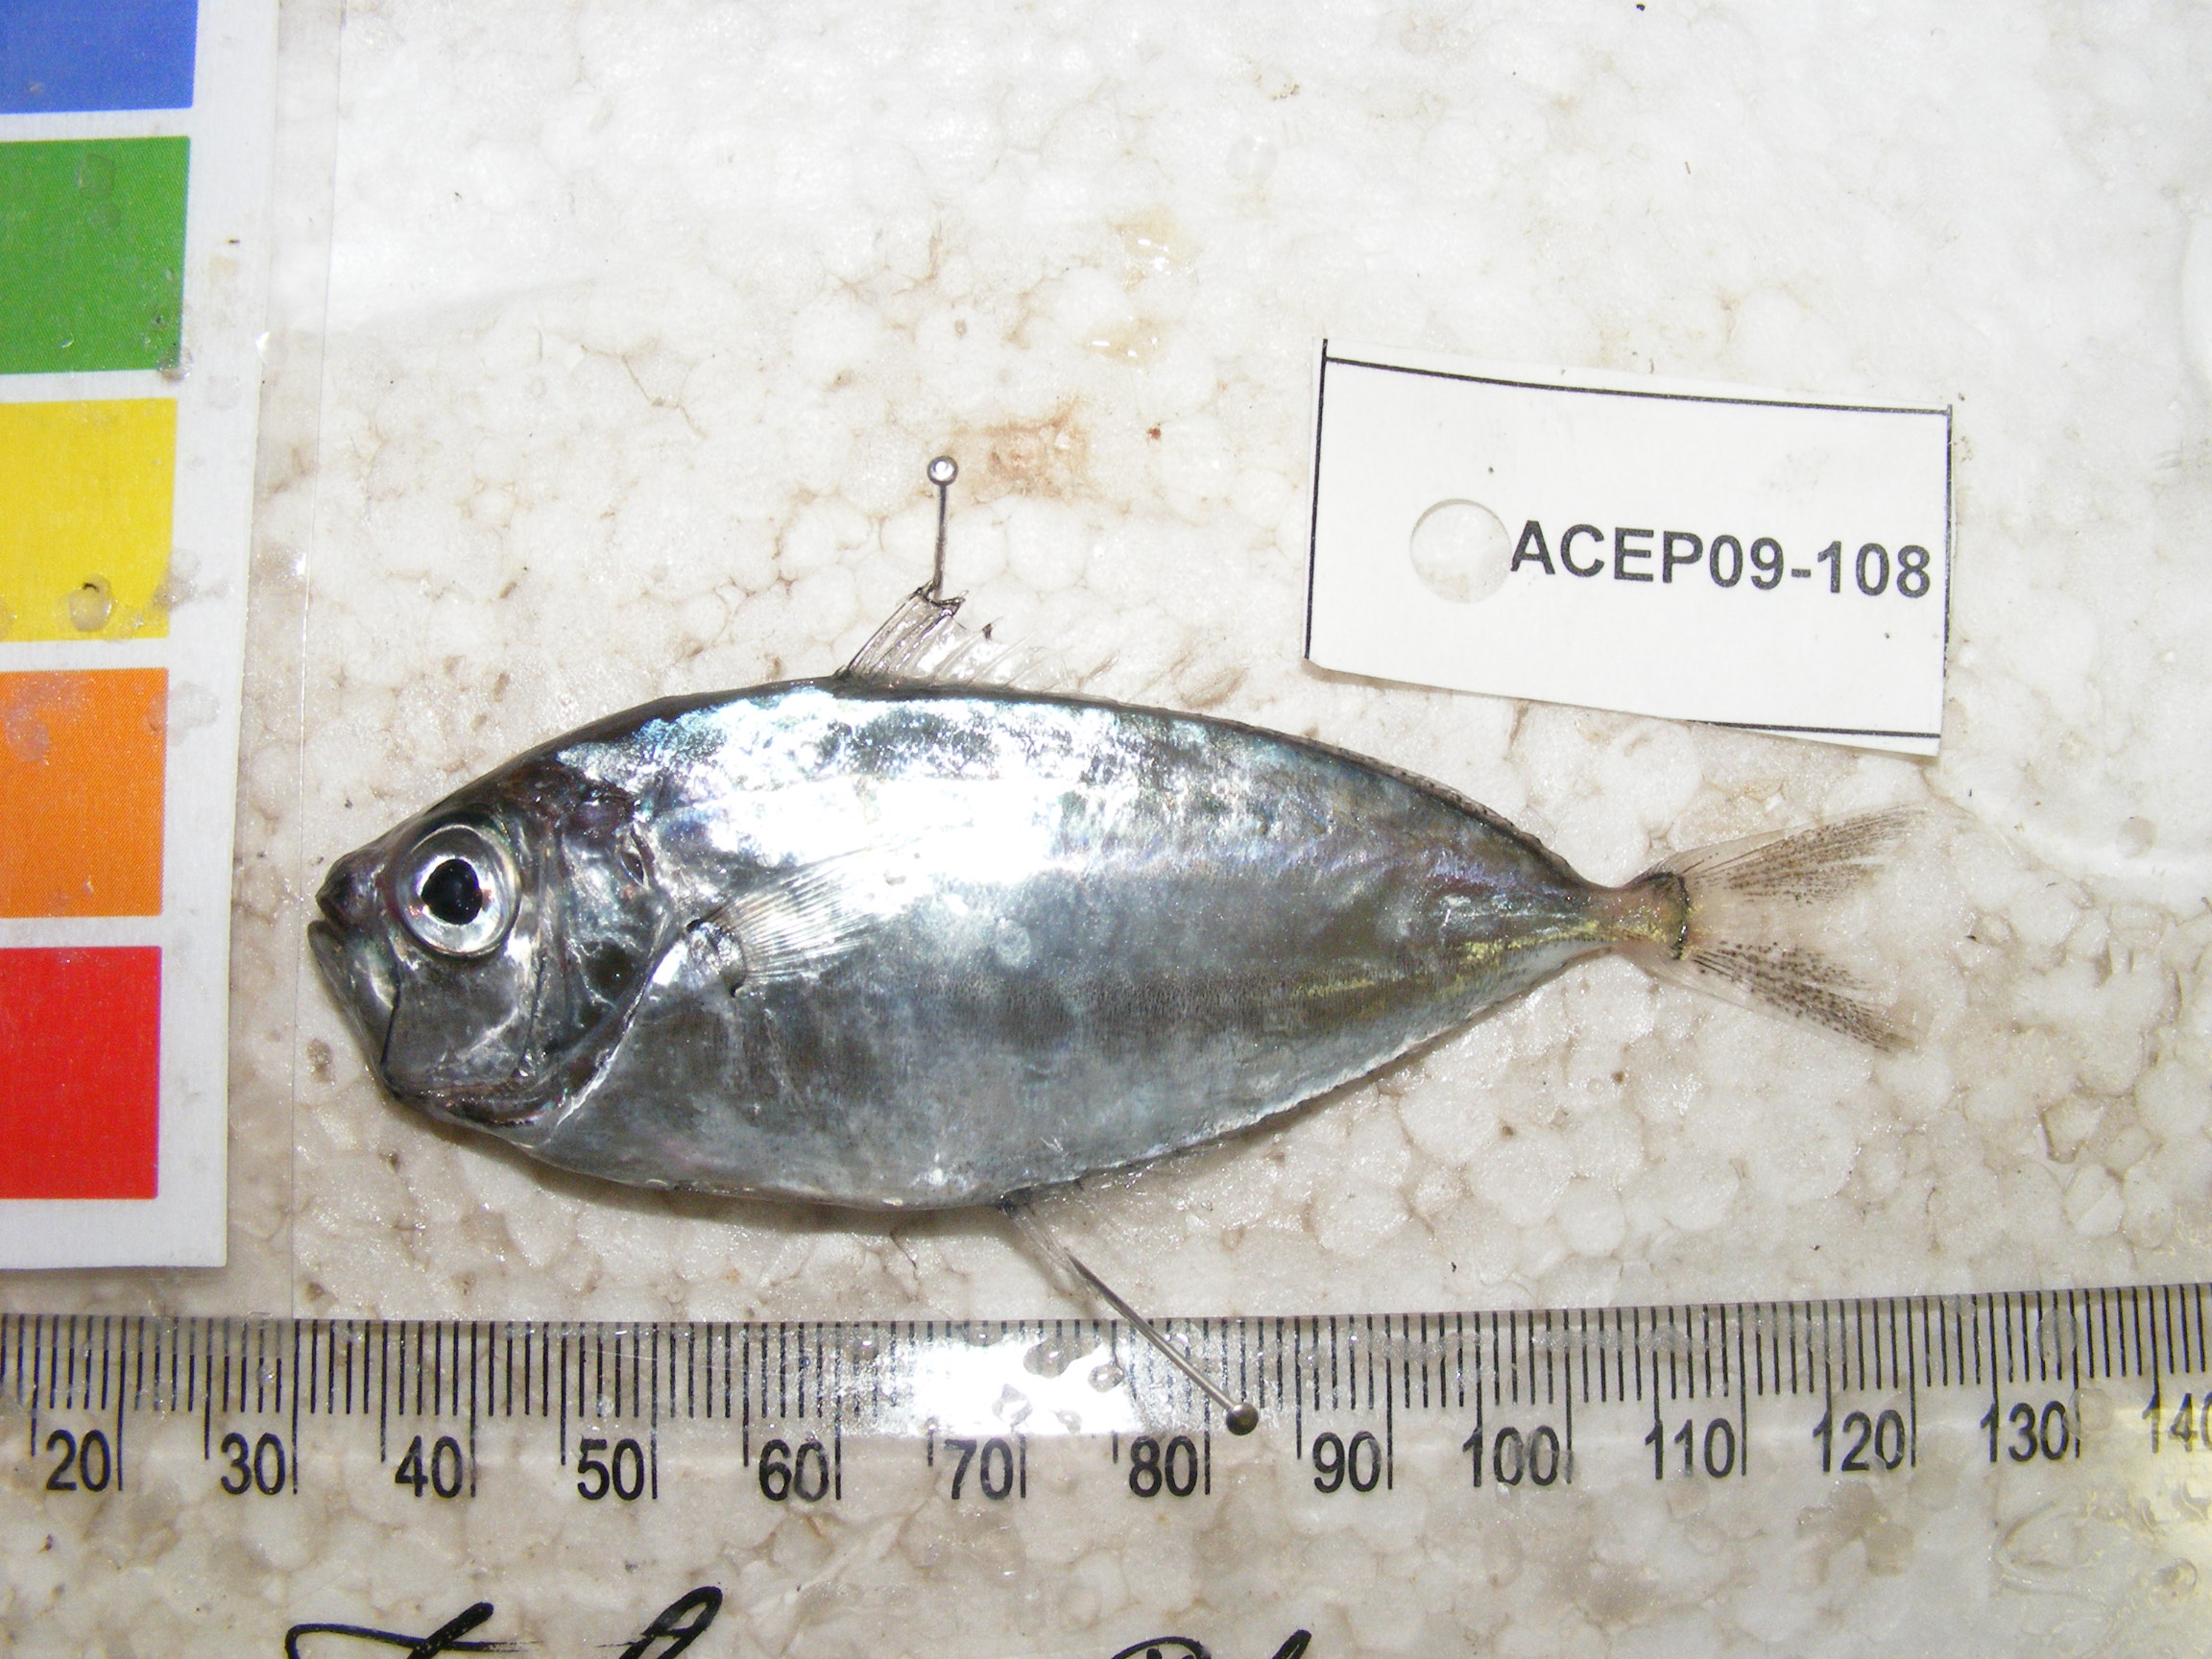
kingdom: Animalia
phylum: Chordata
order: Perciformes
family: Leiognathidae
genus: Secutor
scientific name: Secutor insidiator
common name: Pugnose ponyfish
